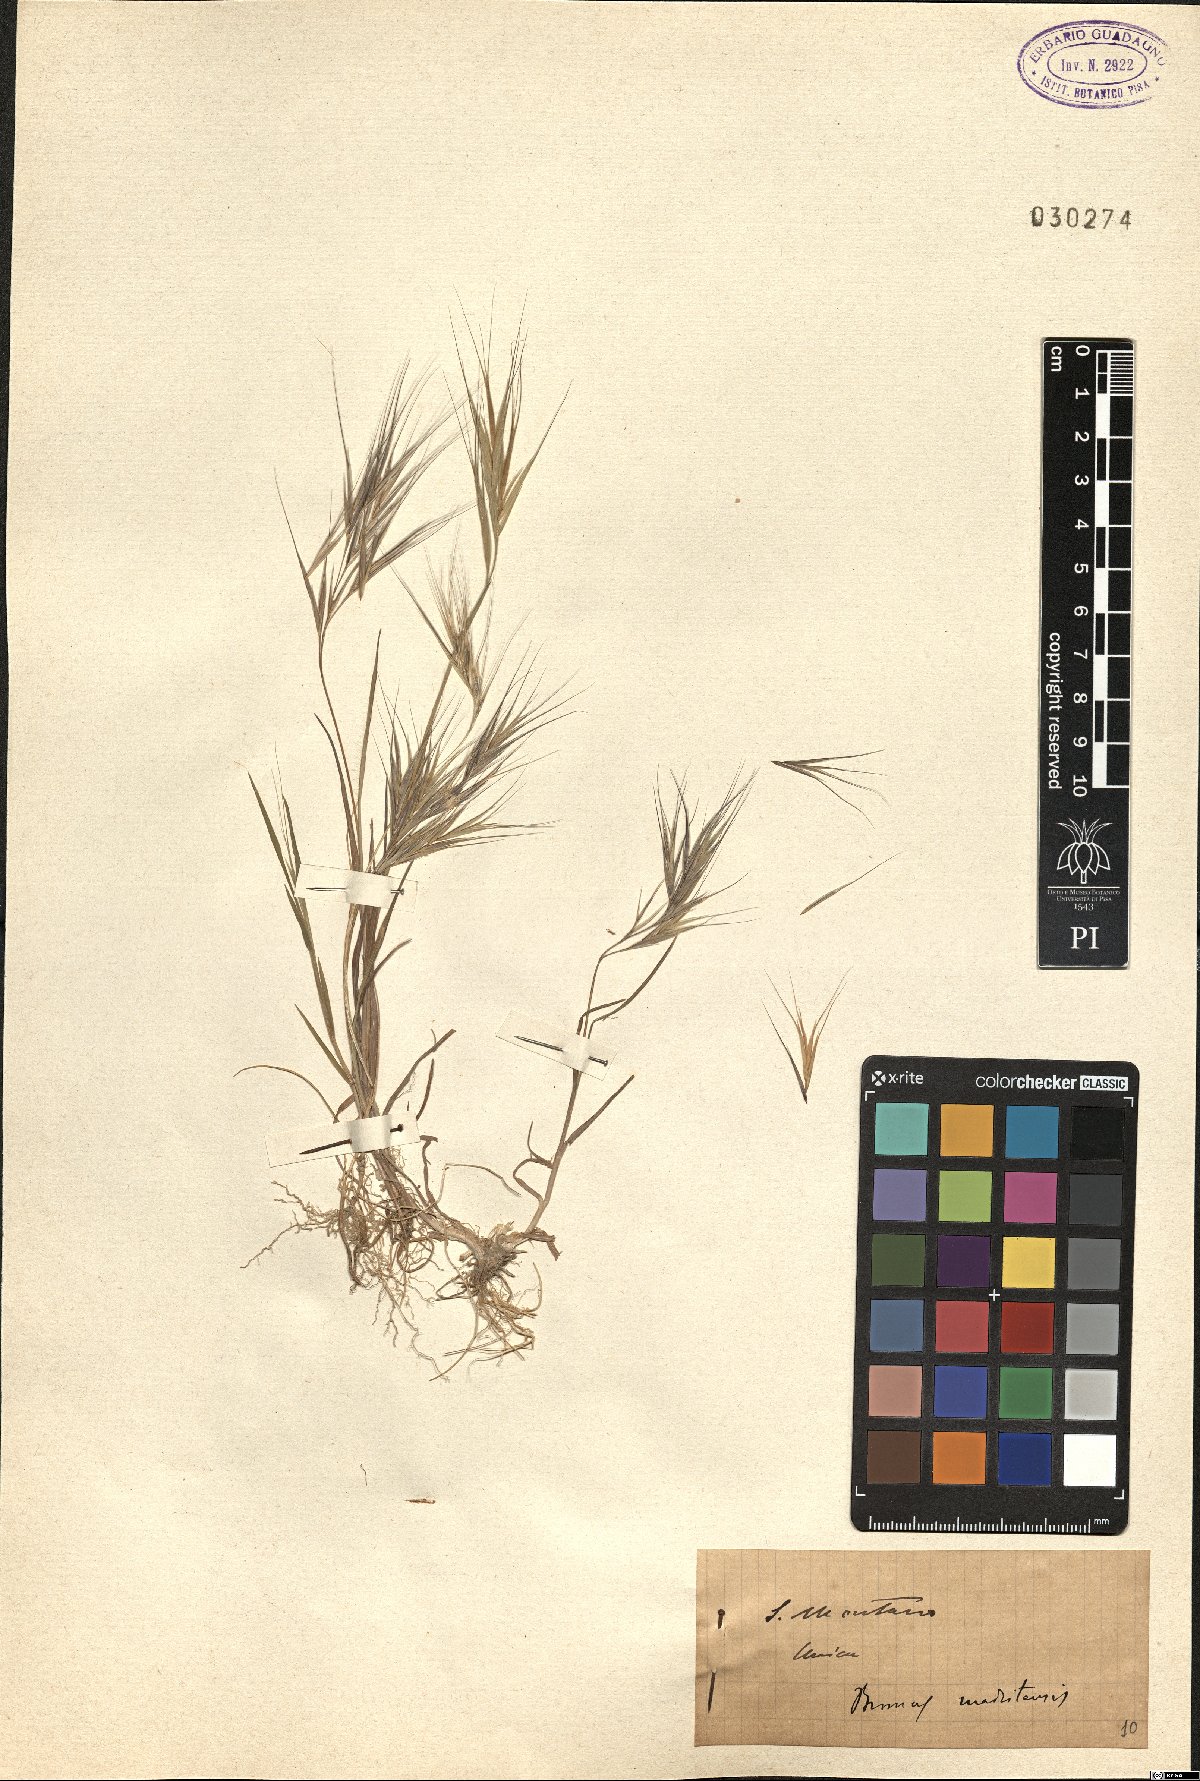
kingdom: Plantae
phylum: Tracheophyta
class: Liliopsida
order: Poales
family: Poaceae
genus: Bromus
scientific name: Bromus madritensis
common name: Compact brome
